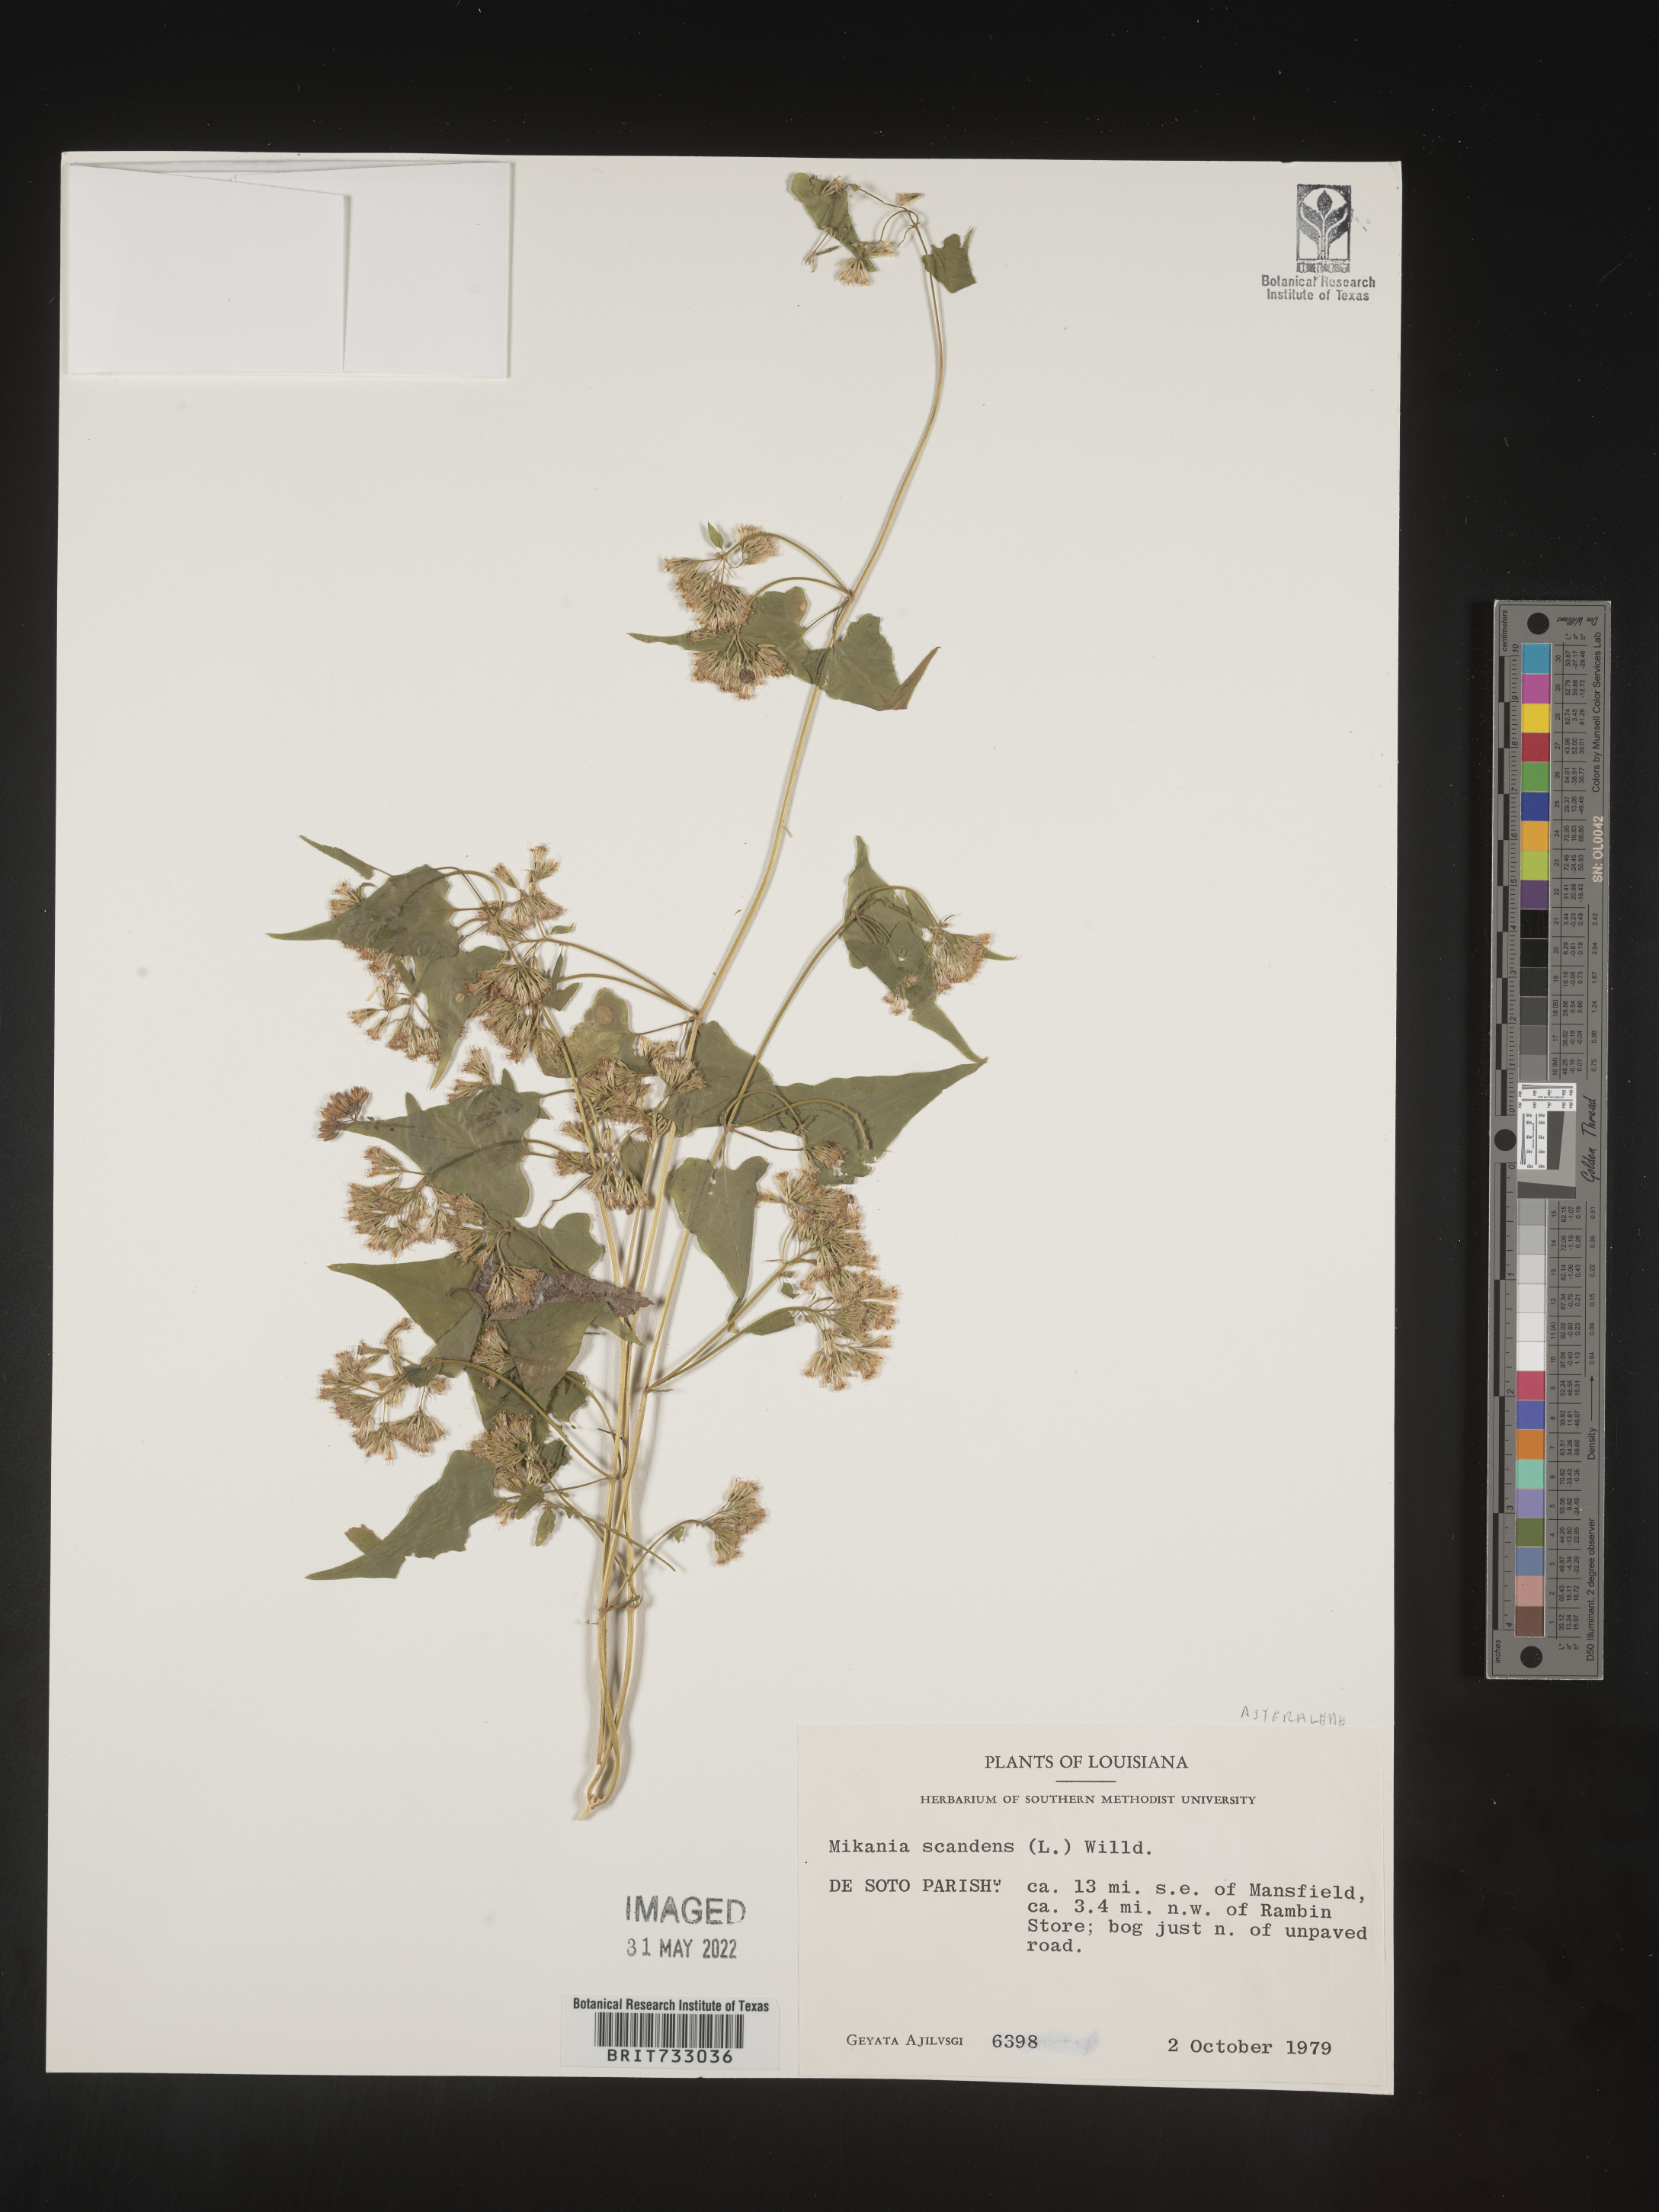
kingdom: Plantae
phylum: Tracheophyta
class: Magnoliopsida
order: Asterales
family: Asteraceae
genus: Mikania
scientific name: Mikania scandens
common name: Climbing hempvine
